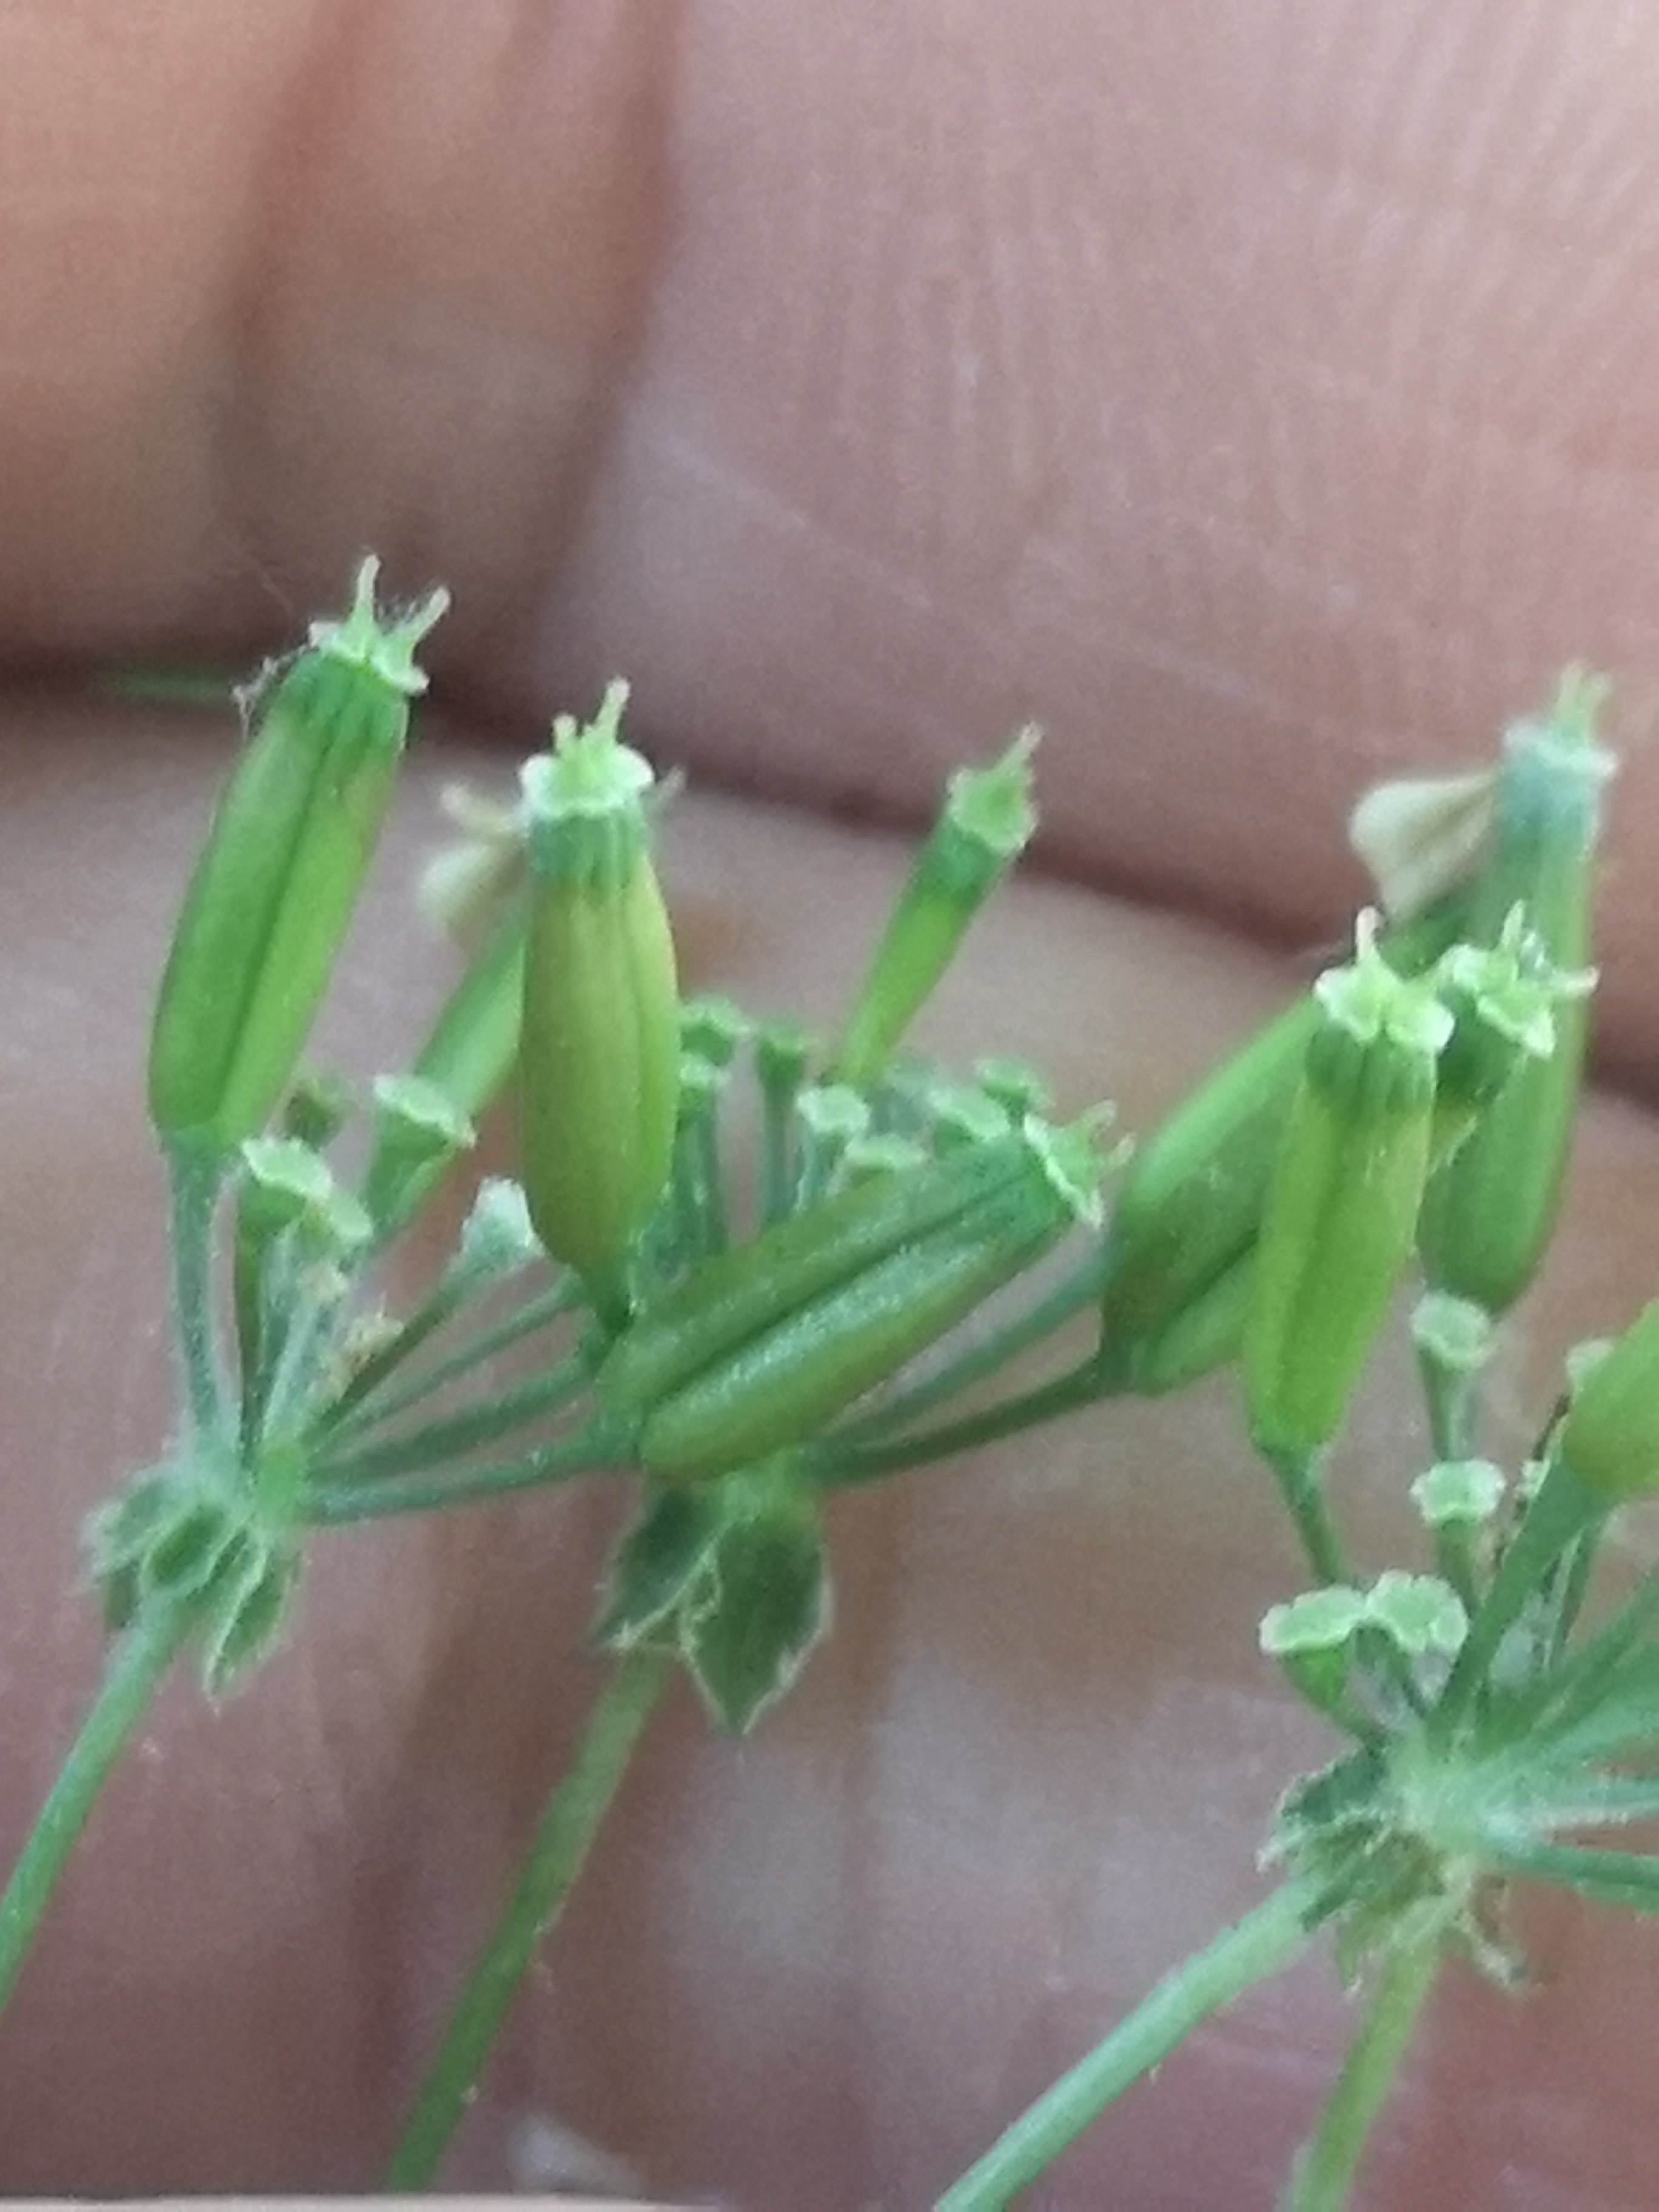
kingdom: Fungi
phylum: Ascomycota
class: Leotiomycetes
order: Helotiales
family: Erysiphaceae
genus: Erysiphe
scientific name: Erysiphe heraclei
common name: skærmplante-meldug
